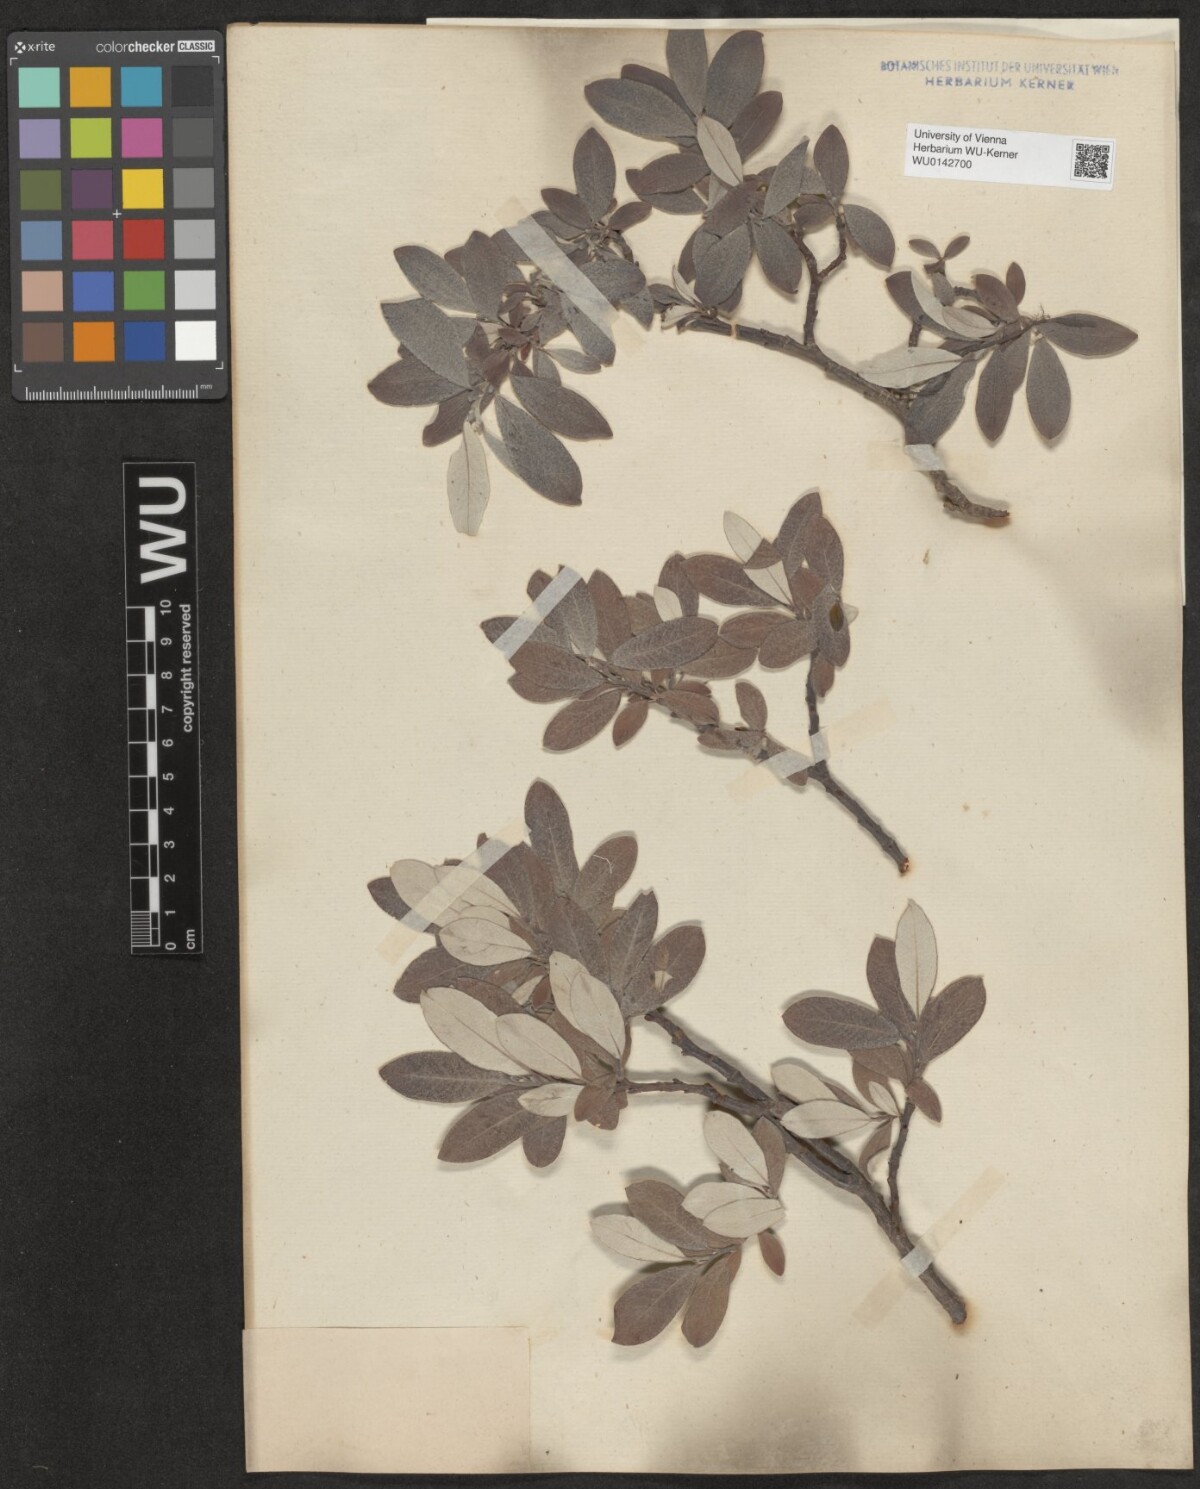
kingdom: Plantae
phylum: Tracheophyta
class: Magnoliopsida
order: Malpighiales
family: Salicaceae
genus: Salix
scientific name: Salix helvetica
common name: Swiss willow
